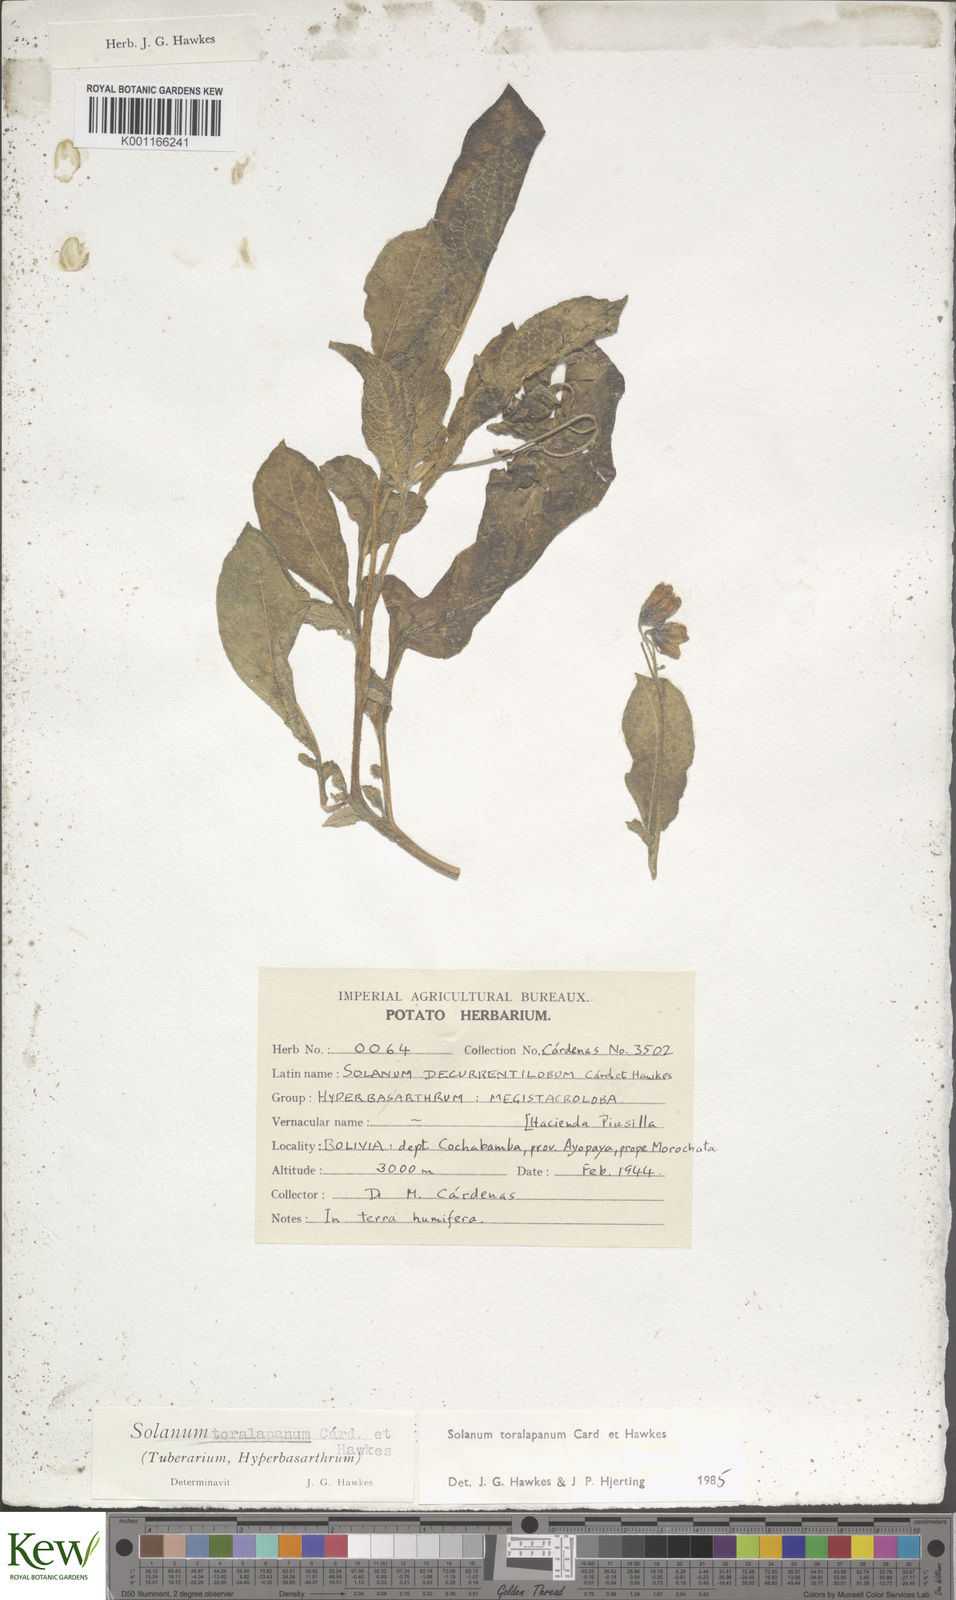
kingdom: Plantae
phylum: Tracheophyta
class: Magnoliopsida
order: Solanales
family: Solanaceae
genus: Solanum
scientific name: Solanum
